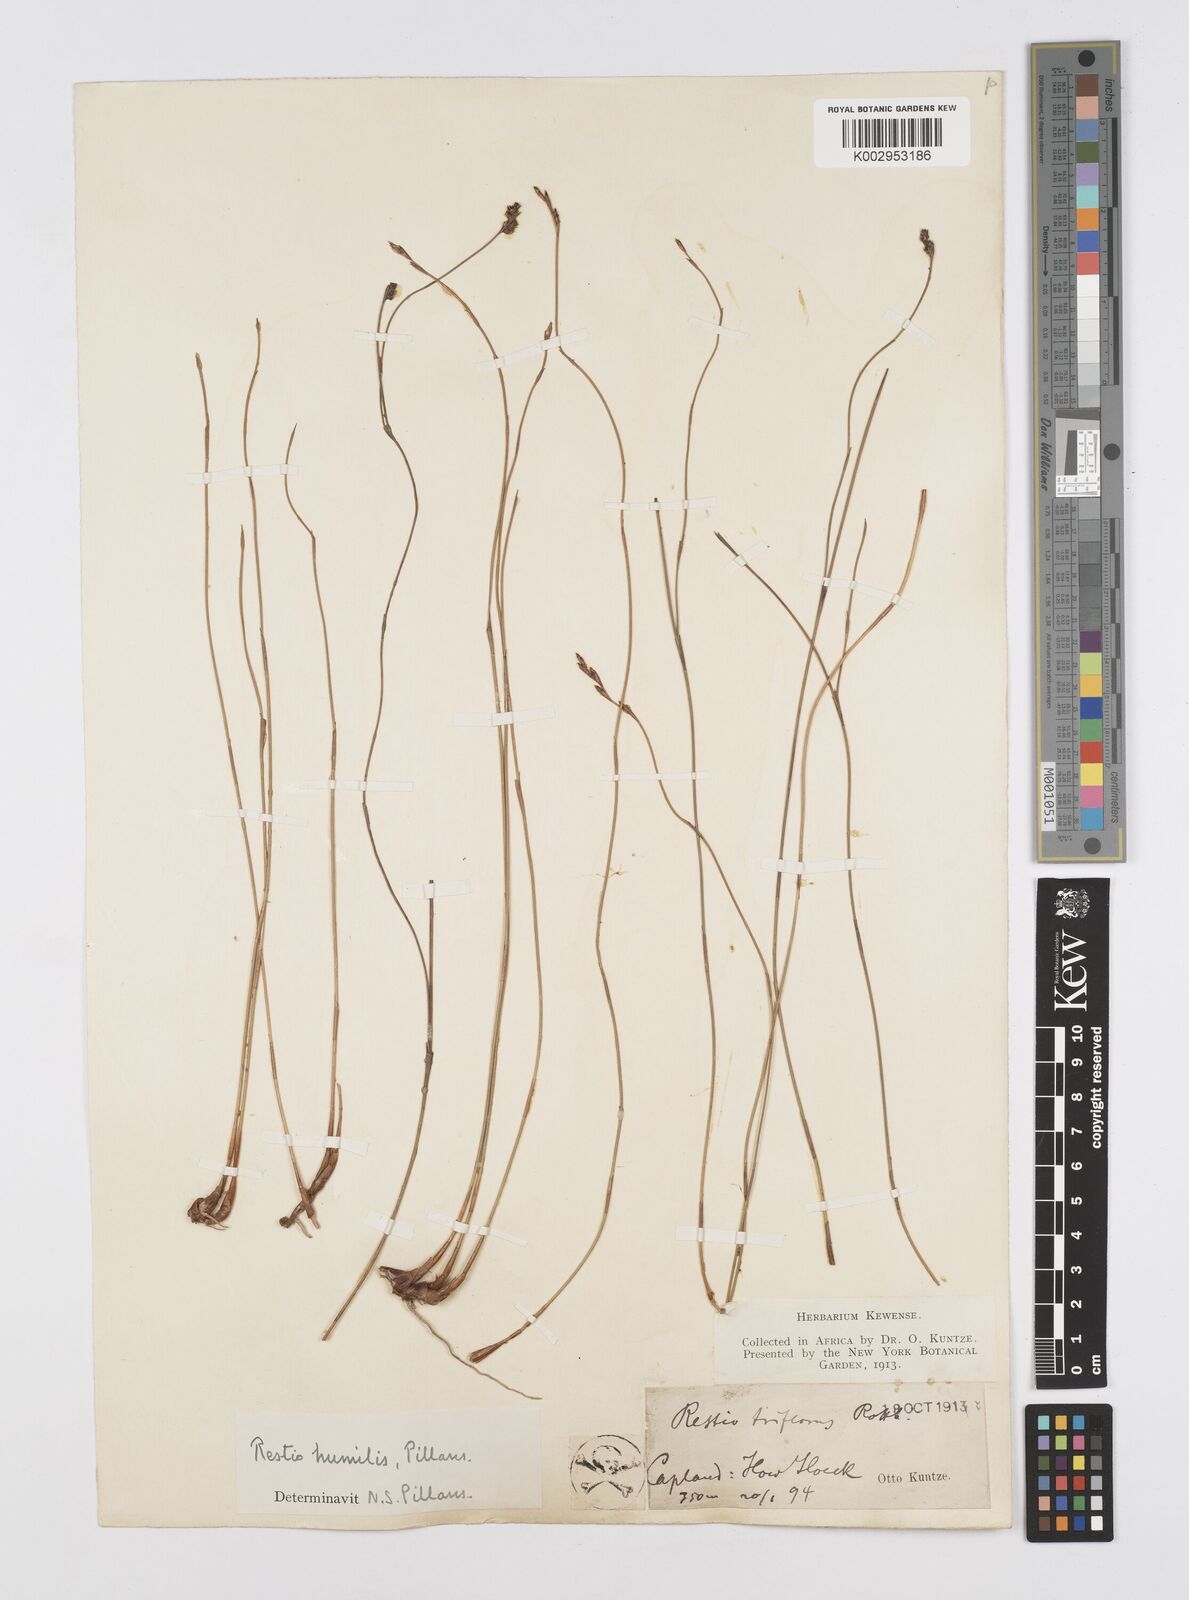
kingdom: Plantae
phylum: Tracheophyta
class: Liliopsida
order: Poales
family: Restionaceae
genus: Restio
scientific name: Restio wallichii
